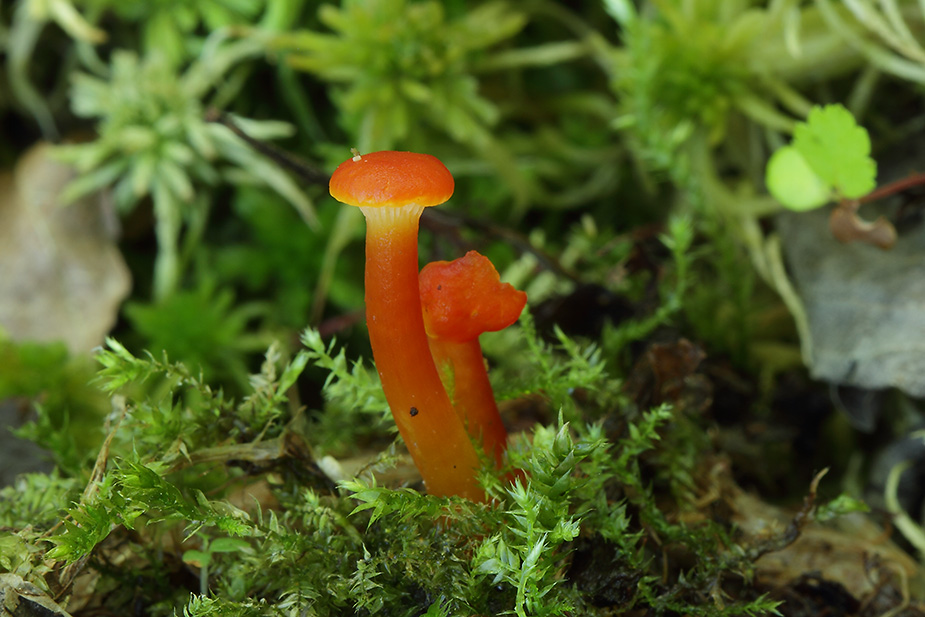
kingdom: Fungi
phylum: Basidiomycota
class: Agaricomycetes
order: Agaricales
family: Hygrophoraceae
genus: Hygrocybe
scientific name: Hygrocybe cantharellus
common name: kantarel-vokshat
